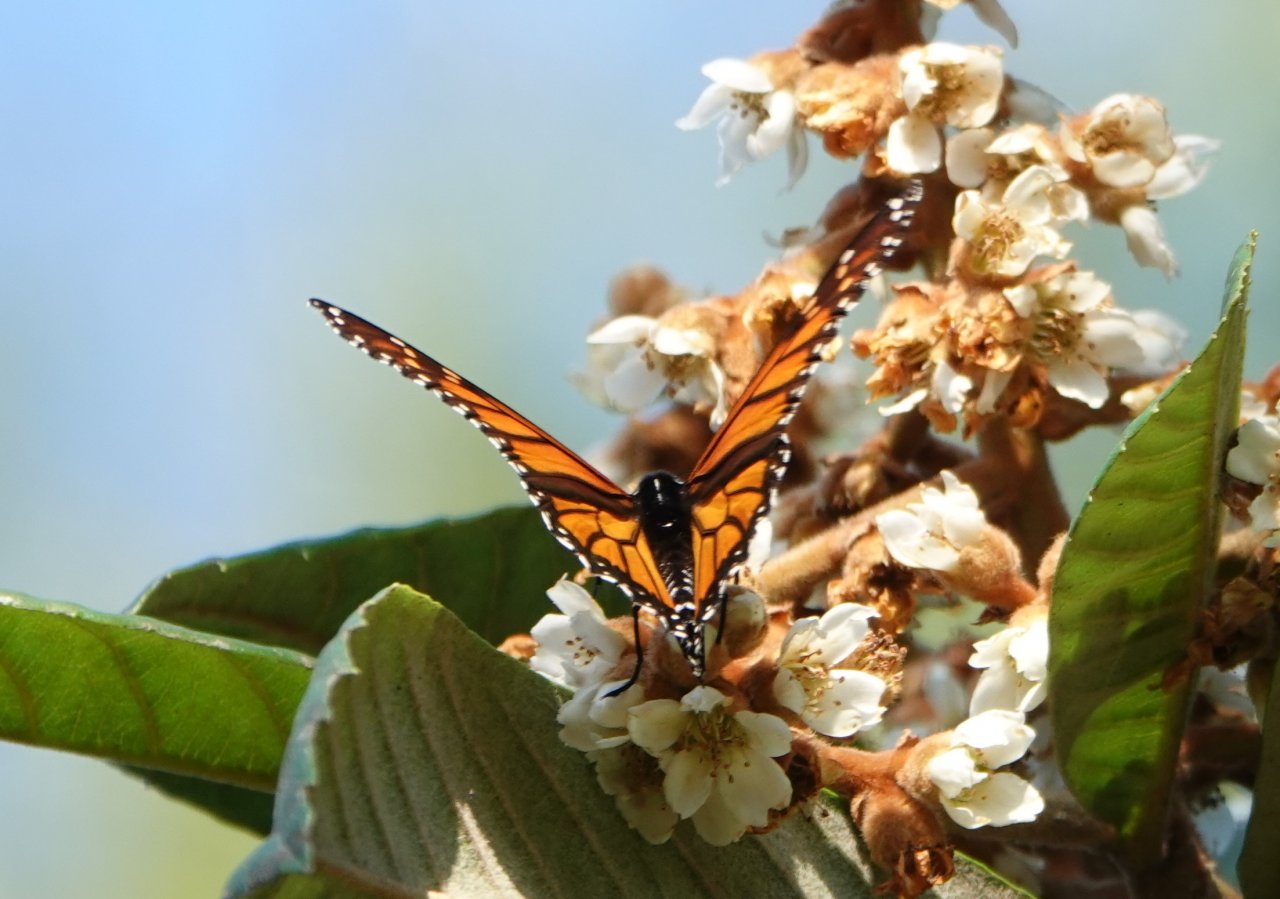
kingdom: Animalia
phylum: Arthropoda
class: Insecta
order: Lepidoptera
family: Nymphalidae
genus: Danaus
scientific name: Danaus plexippus
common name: Monarch
